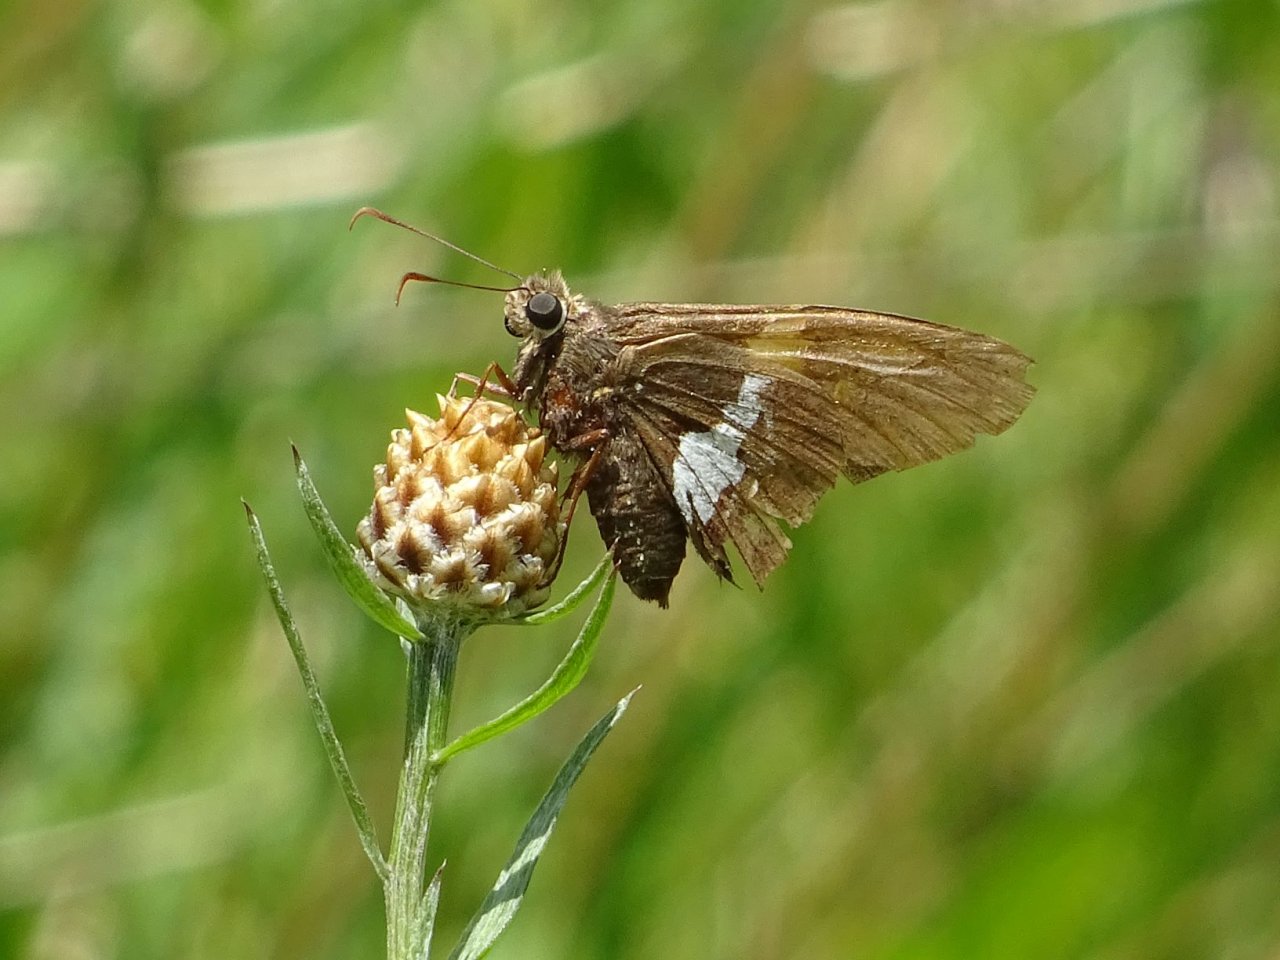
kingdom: Animalia
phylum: Arthropoda
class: Insecta
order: Lepidoptera
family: Hesperiidae
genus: Epargyreus
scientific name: Epargyreus clarus
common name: Silver-spotted Skipper
